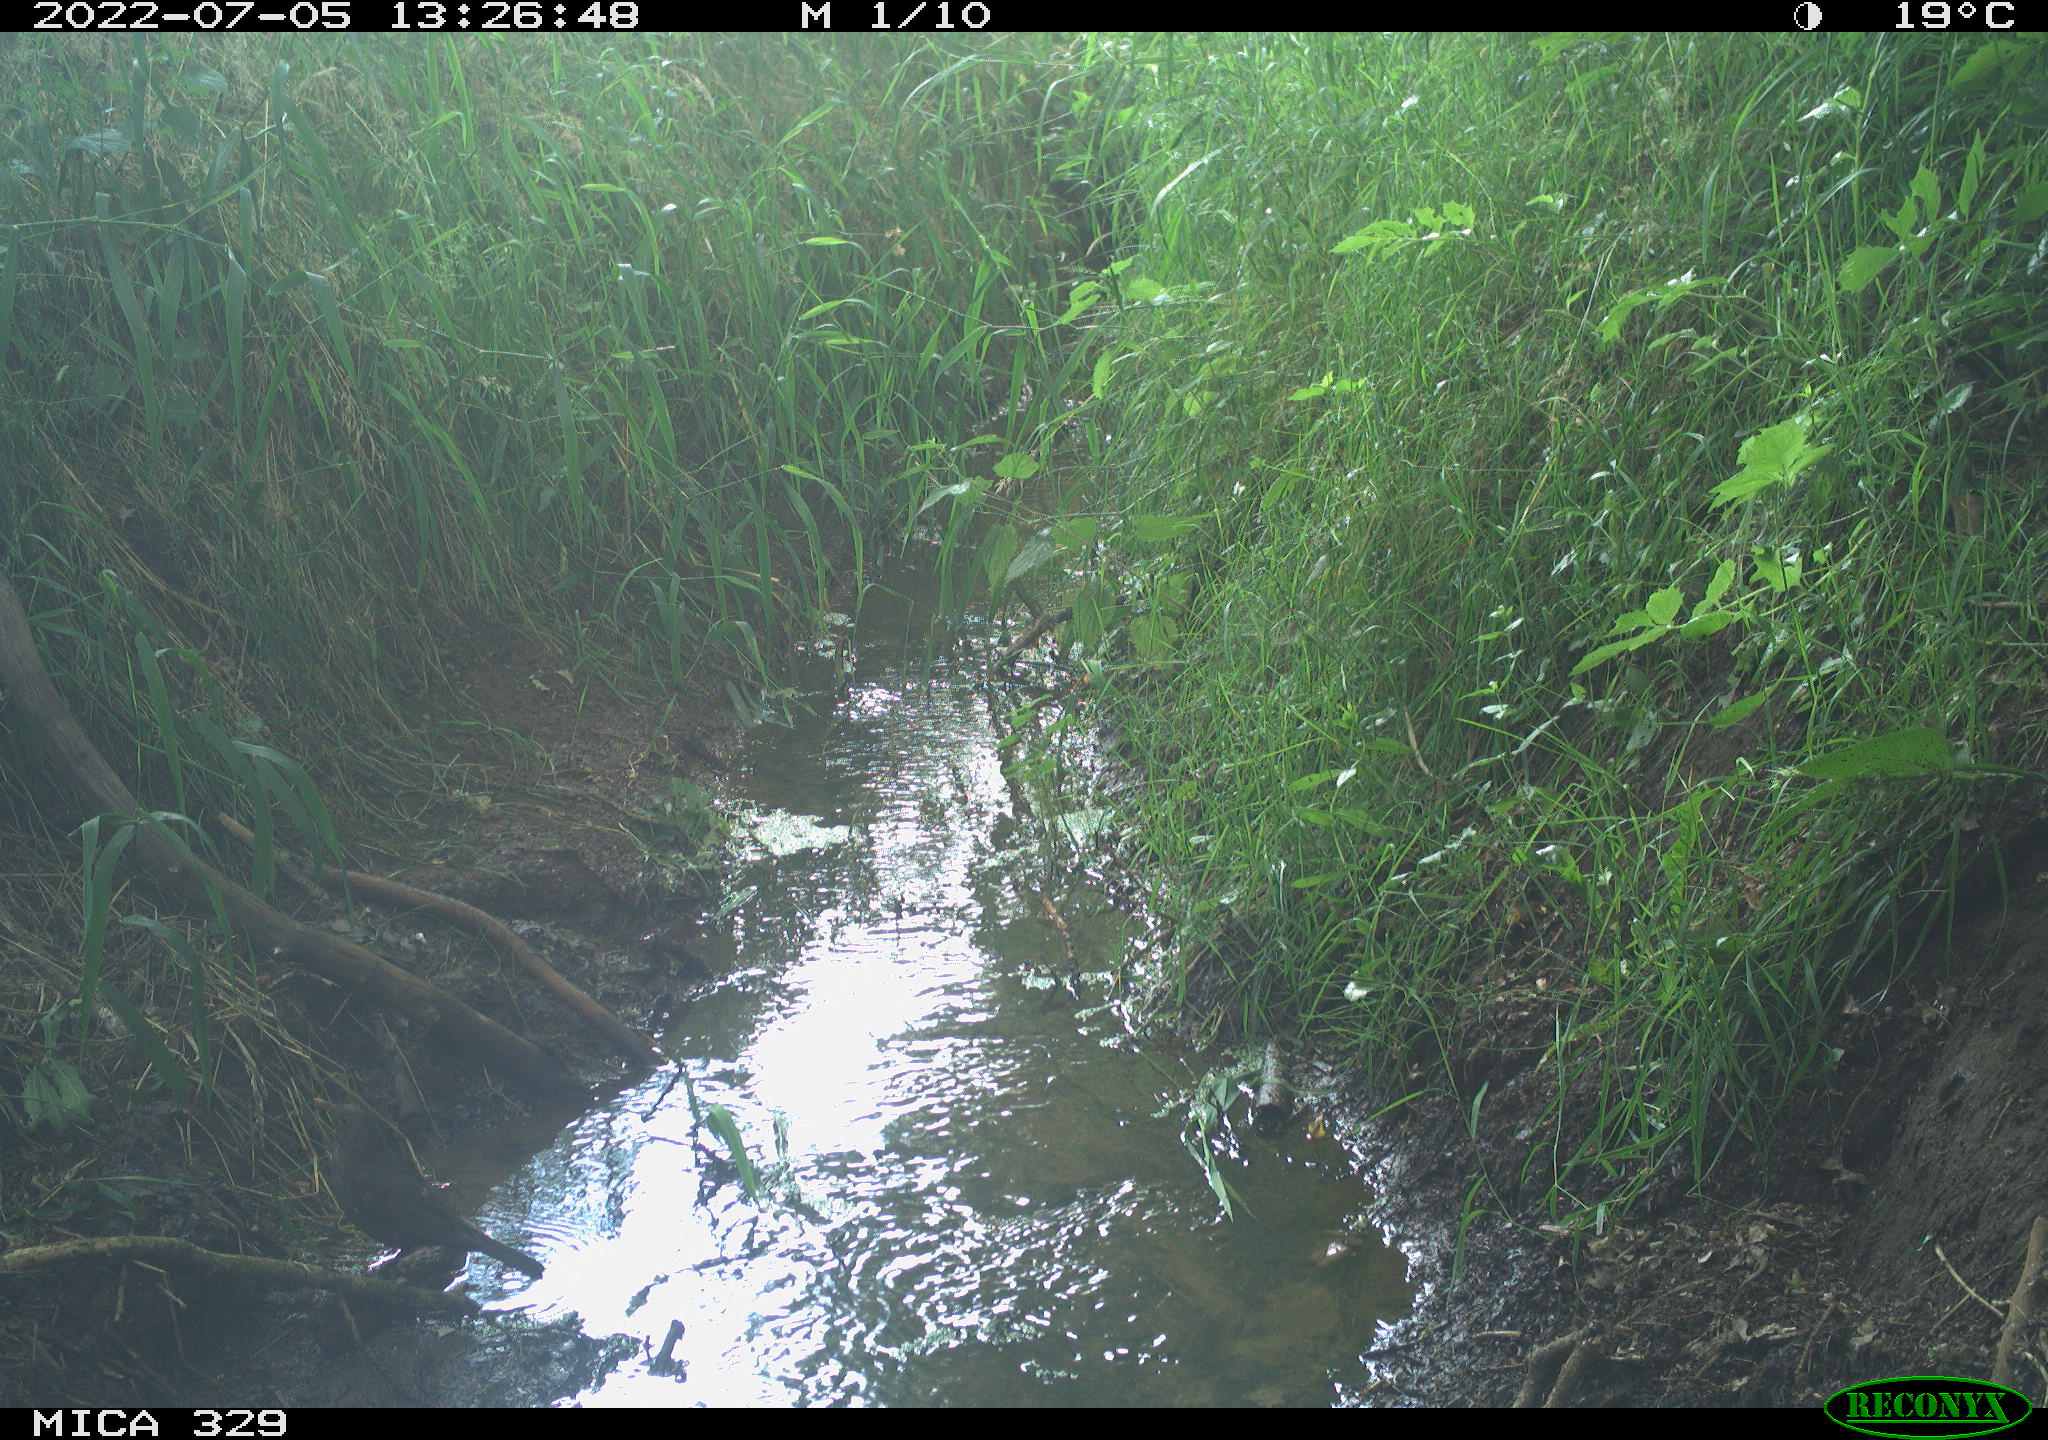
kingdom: Animalia
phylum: Chordata
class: Aves
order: Passeriformes
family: Turdidae
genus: Turdus
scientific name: Turdus merula
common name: Common blackbird
